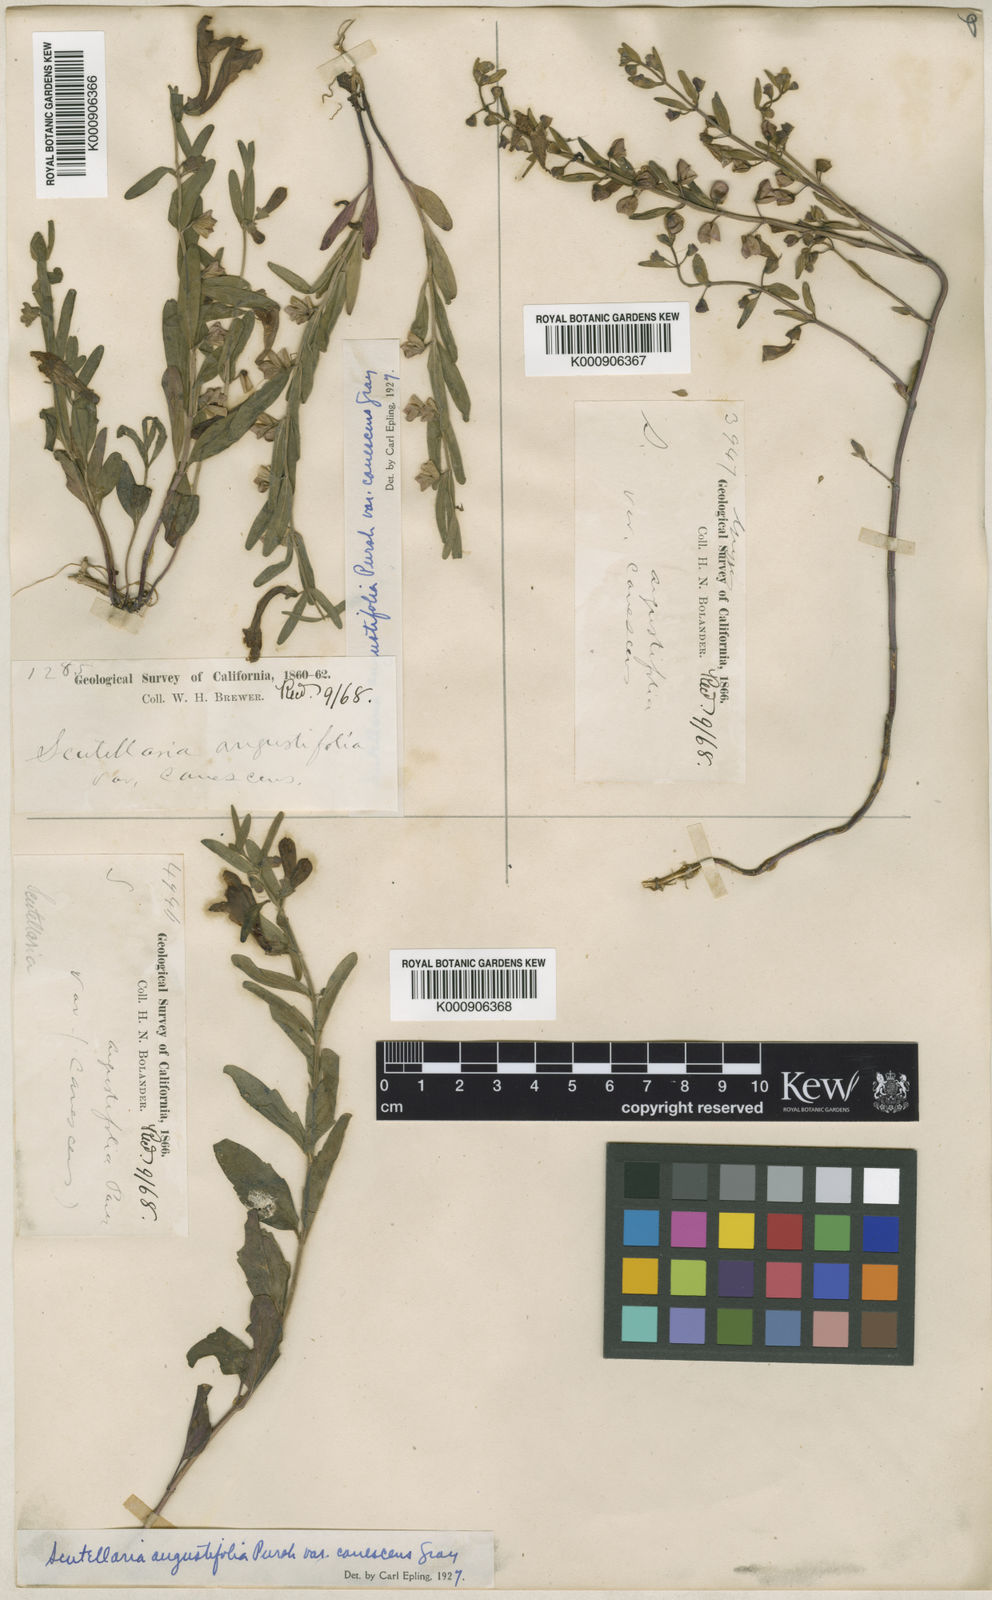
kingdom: Plantae
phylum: Tracheophyta
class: Magnoliopsida
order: Lamiales
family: Lamiaceae
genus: Scutellaria
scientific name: Scutellaria angustifolia
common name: Narrow-leaved skullcap
